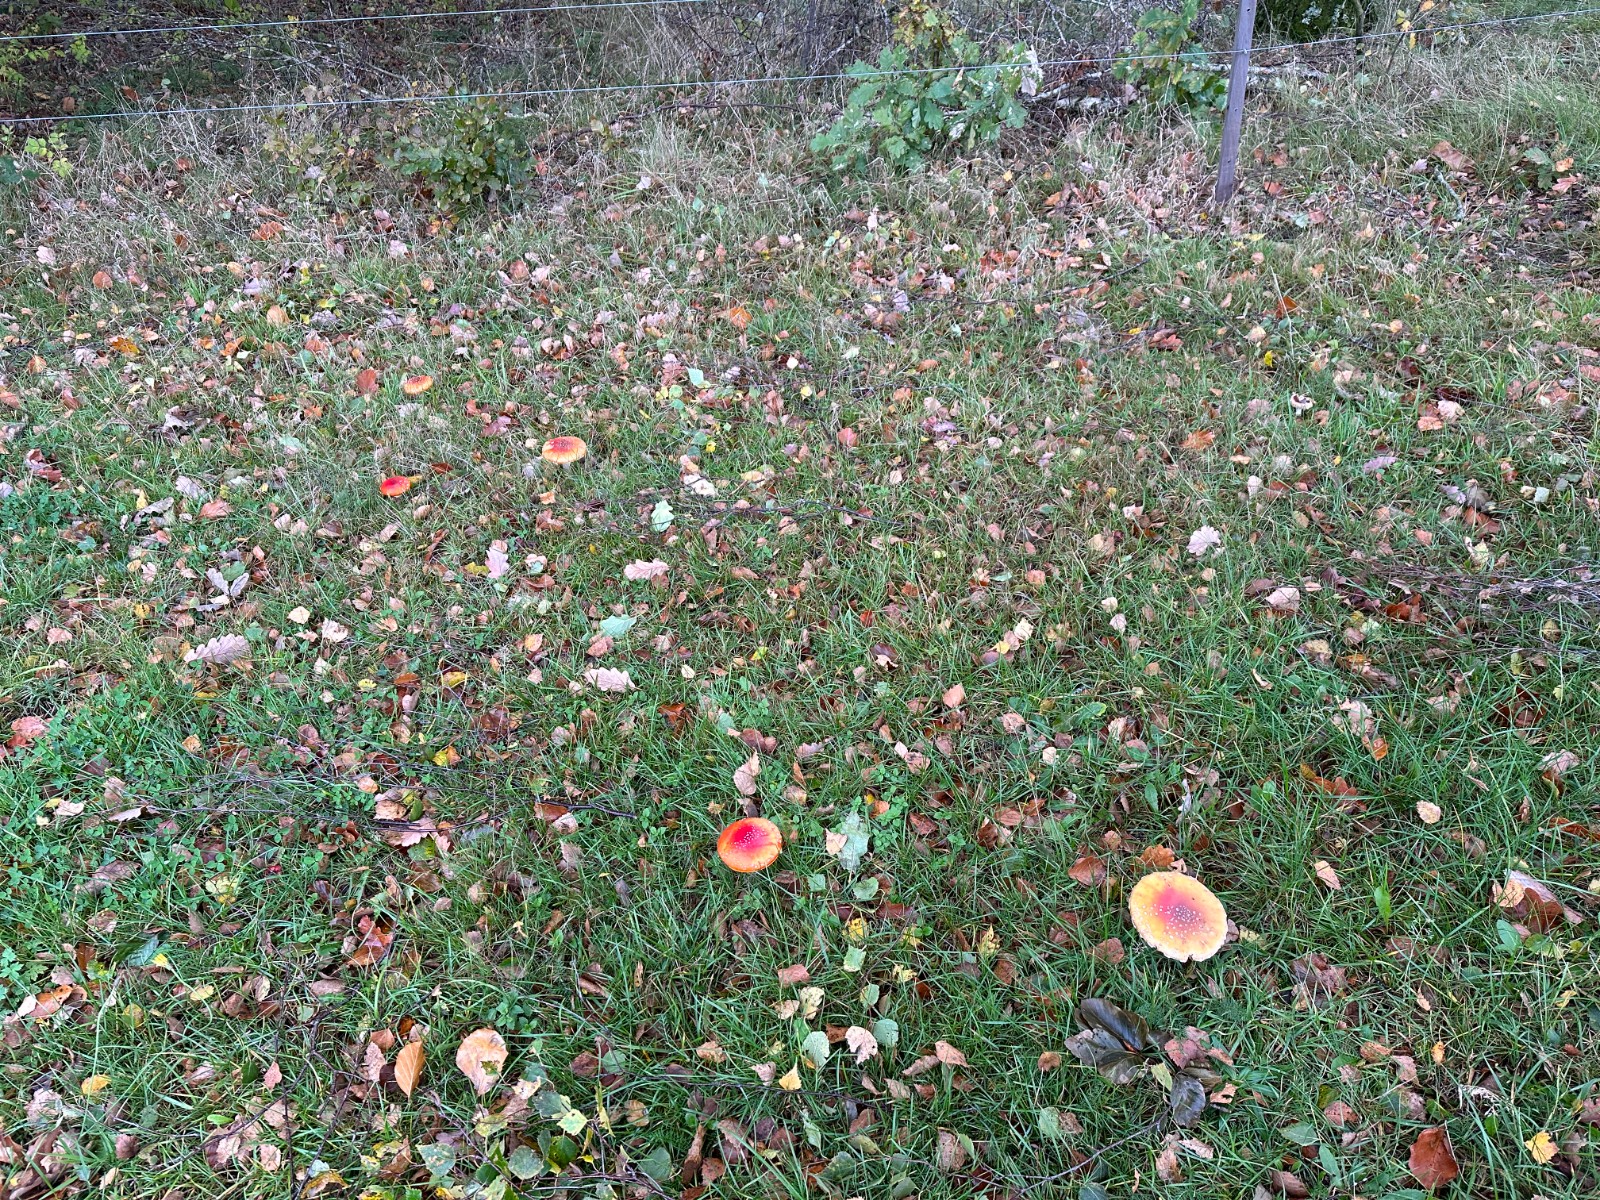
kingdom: Fungi
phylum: Basidiomycota
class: Agaricomycetes
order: Agaricales
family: Amanitaceae
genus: Amanita
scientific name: Amanita muscaria
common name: rød fluesvamp
